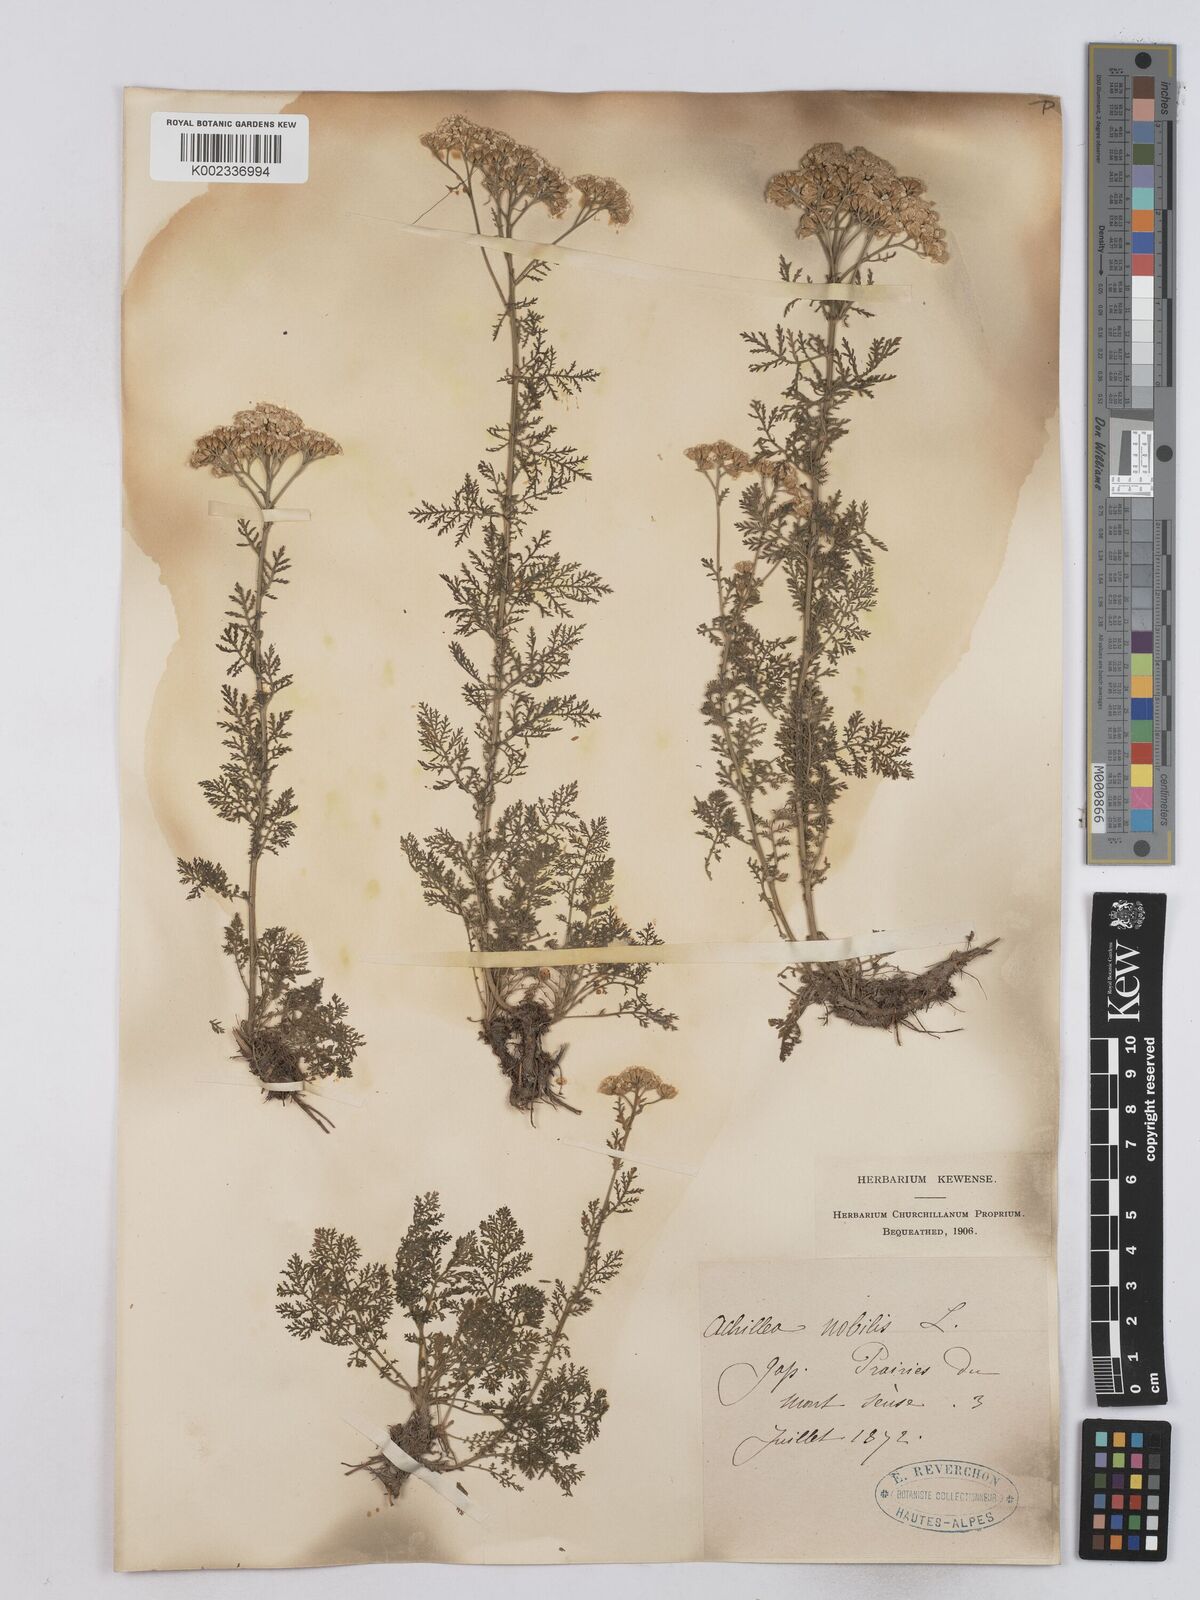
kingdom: Plantae
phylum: Tracheophyta
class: Magnoliopsida
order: Asterales
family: Asteraceae
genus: Achillea
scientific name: Achillea nobilis
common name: Noble yarrow
